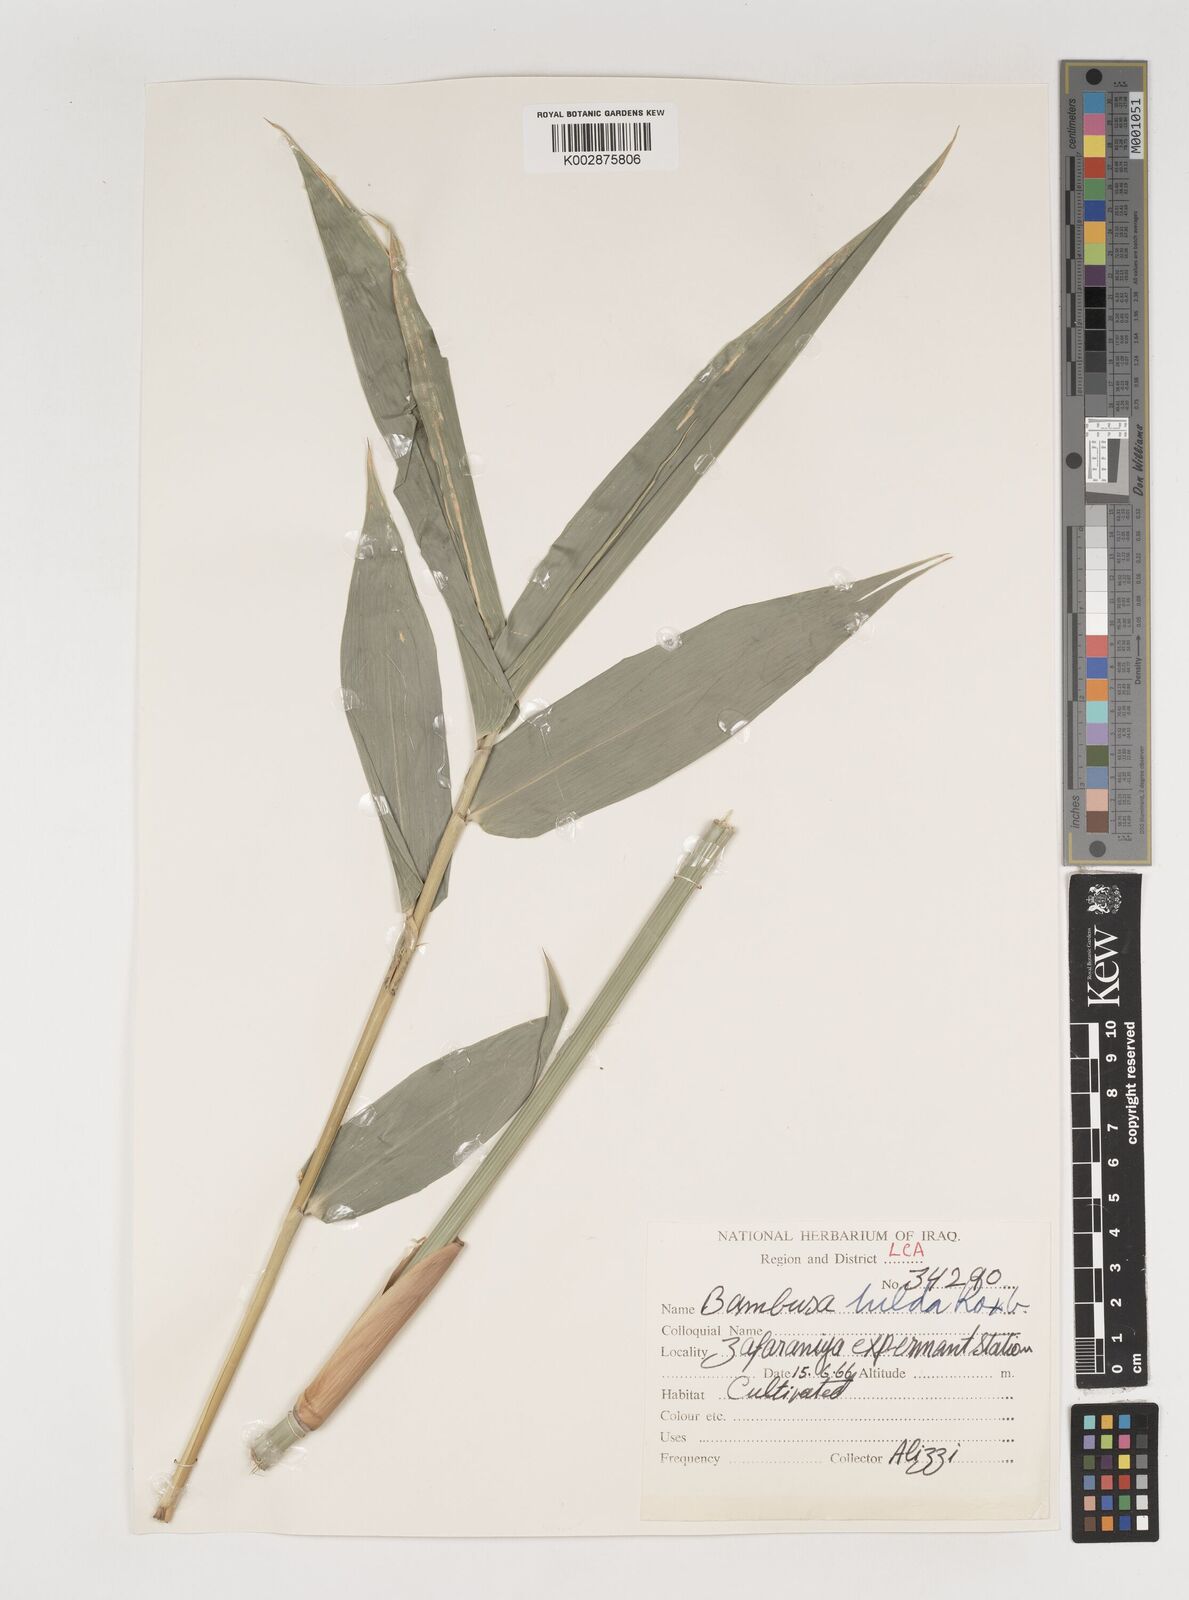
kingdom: Plantae
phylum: Tracheophyta
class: Liliopsida
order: Poales
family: Poaceae
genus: Bambusa
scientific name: Bambusa tulda
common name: Bengal bamboo
